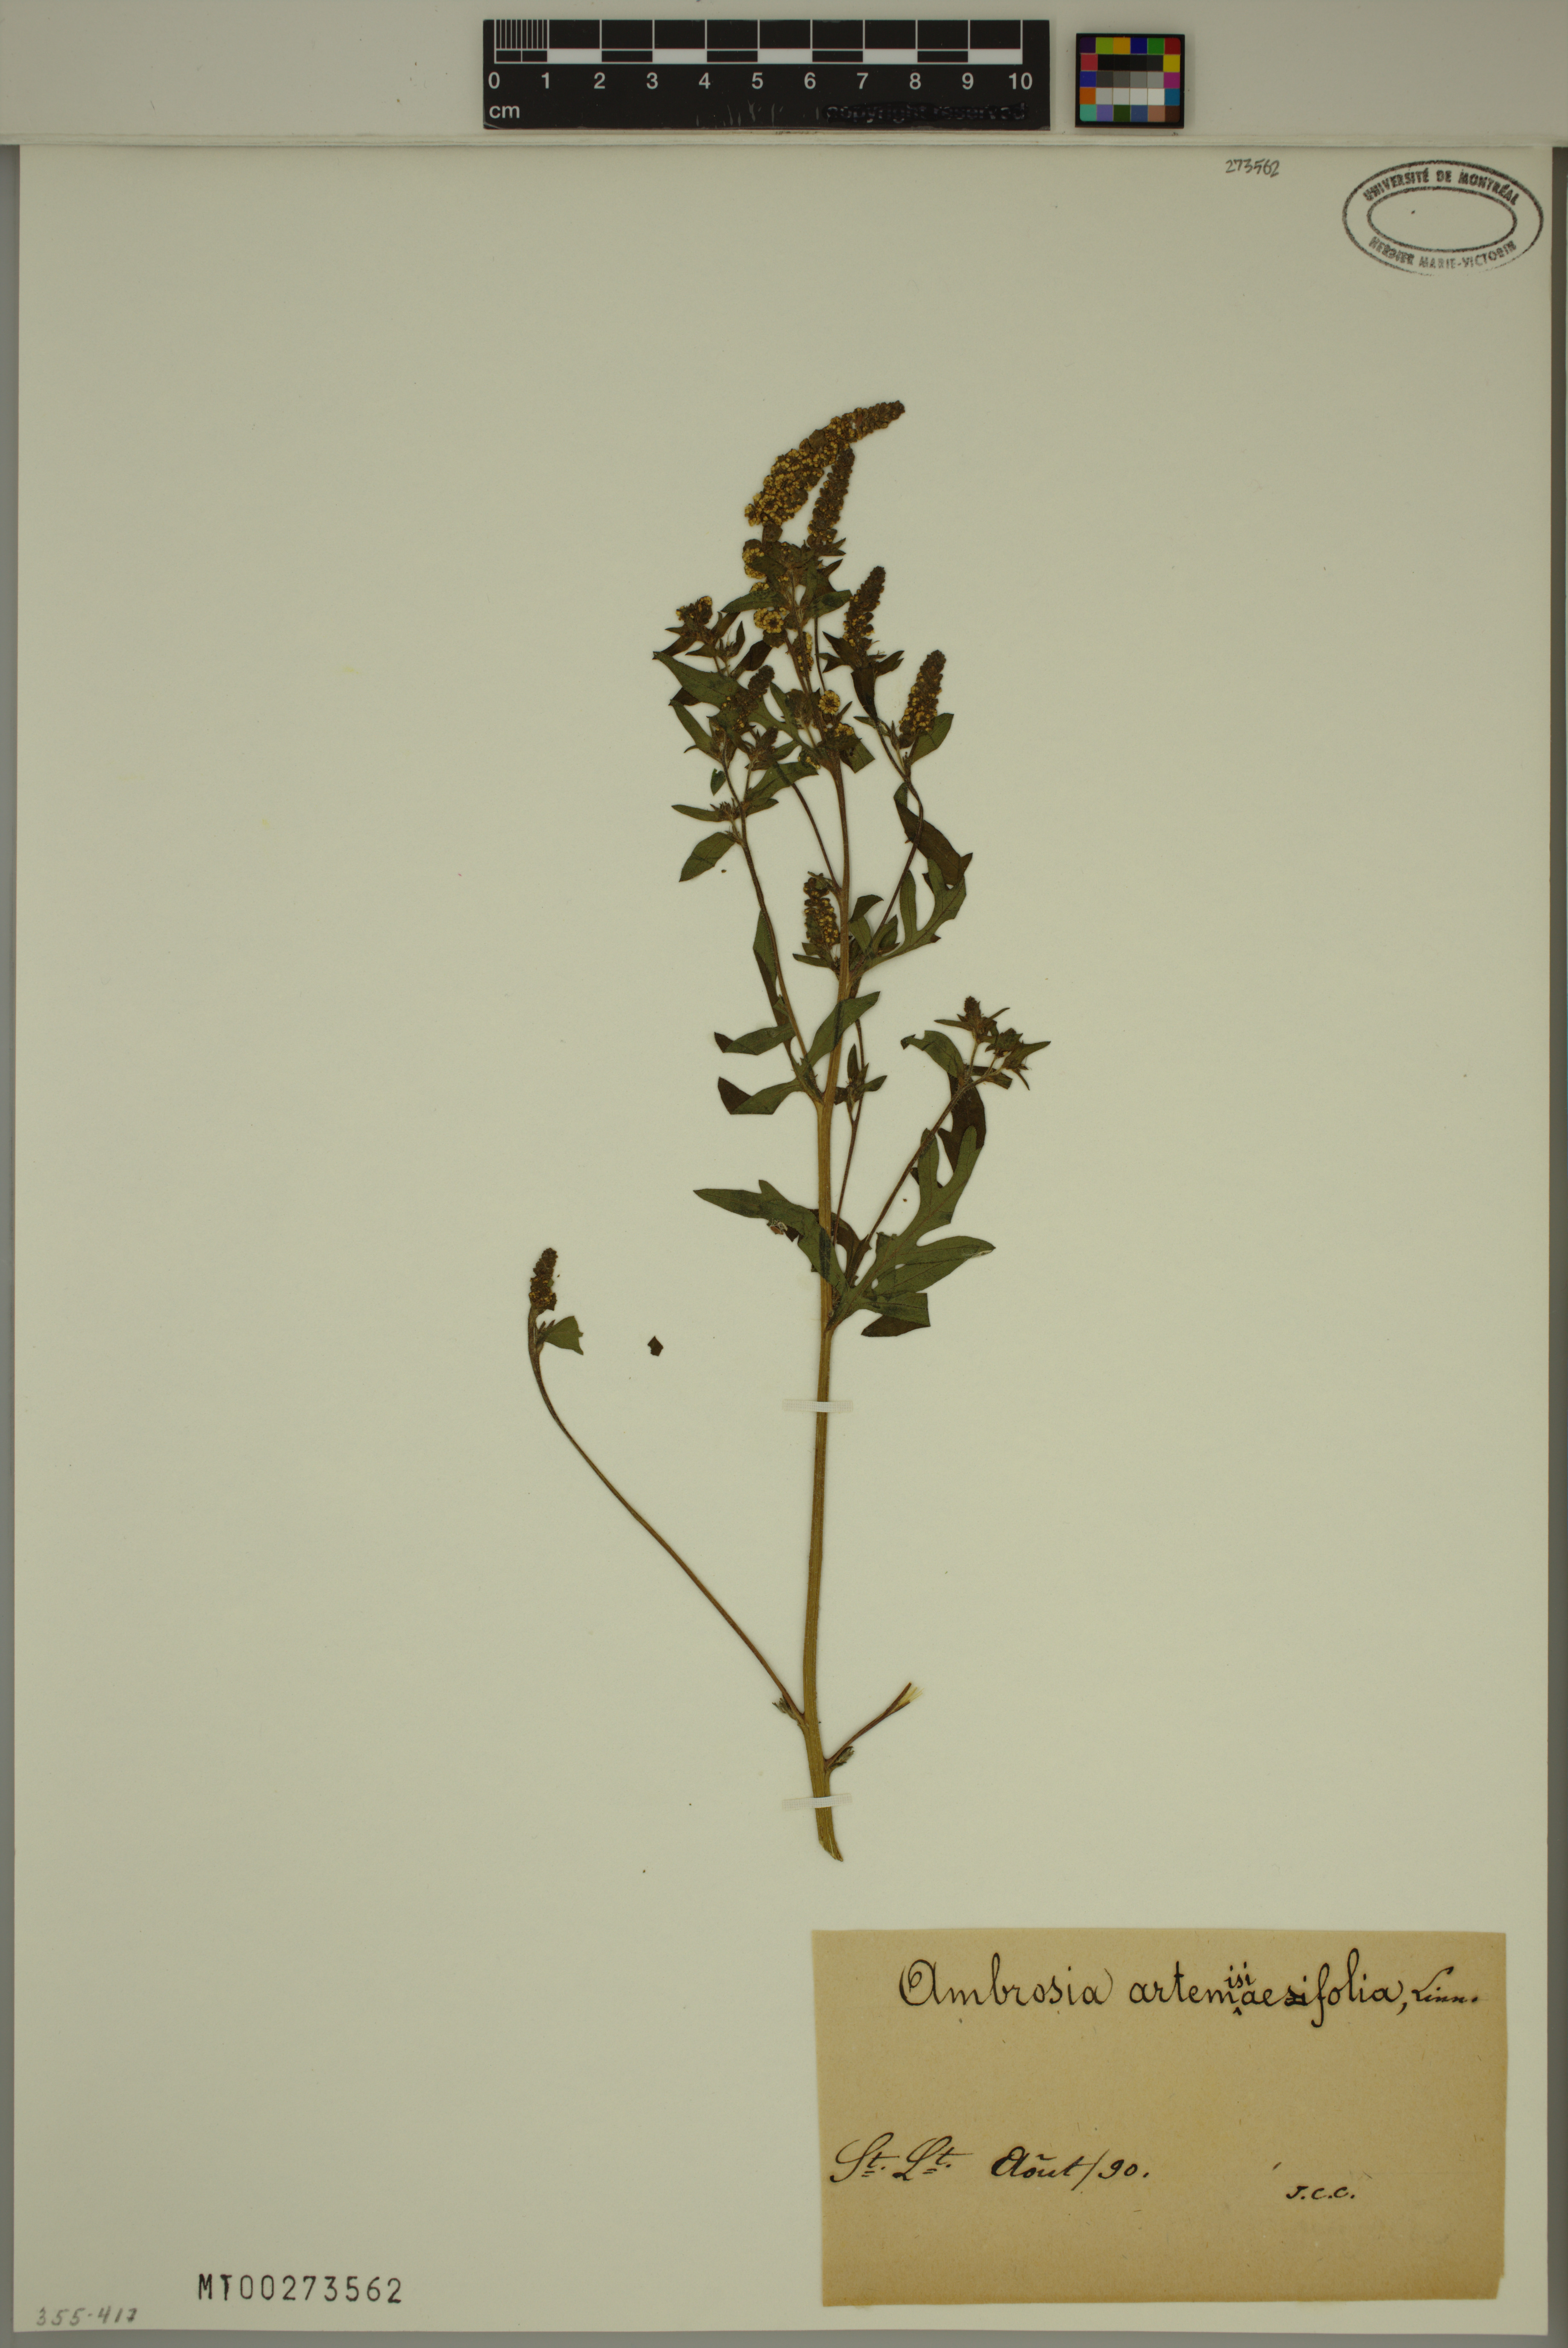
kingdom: Plantae
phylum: Tracheophyta
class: Magnoliopsida
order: Asterales
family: Asteraceae
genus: Ambrosia
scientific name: Ambrosia artemisiifolia
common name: Annual ragweed
